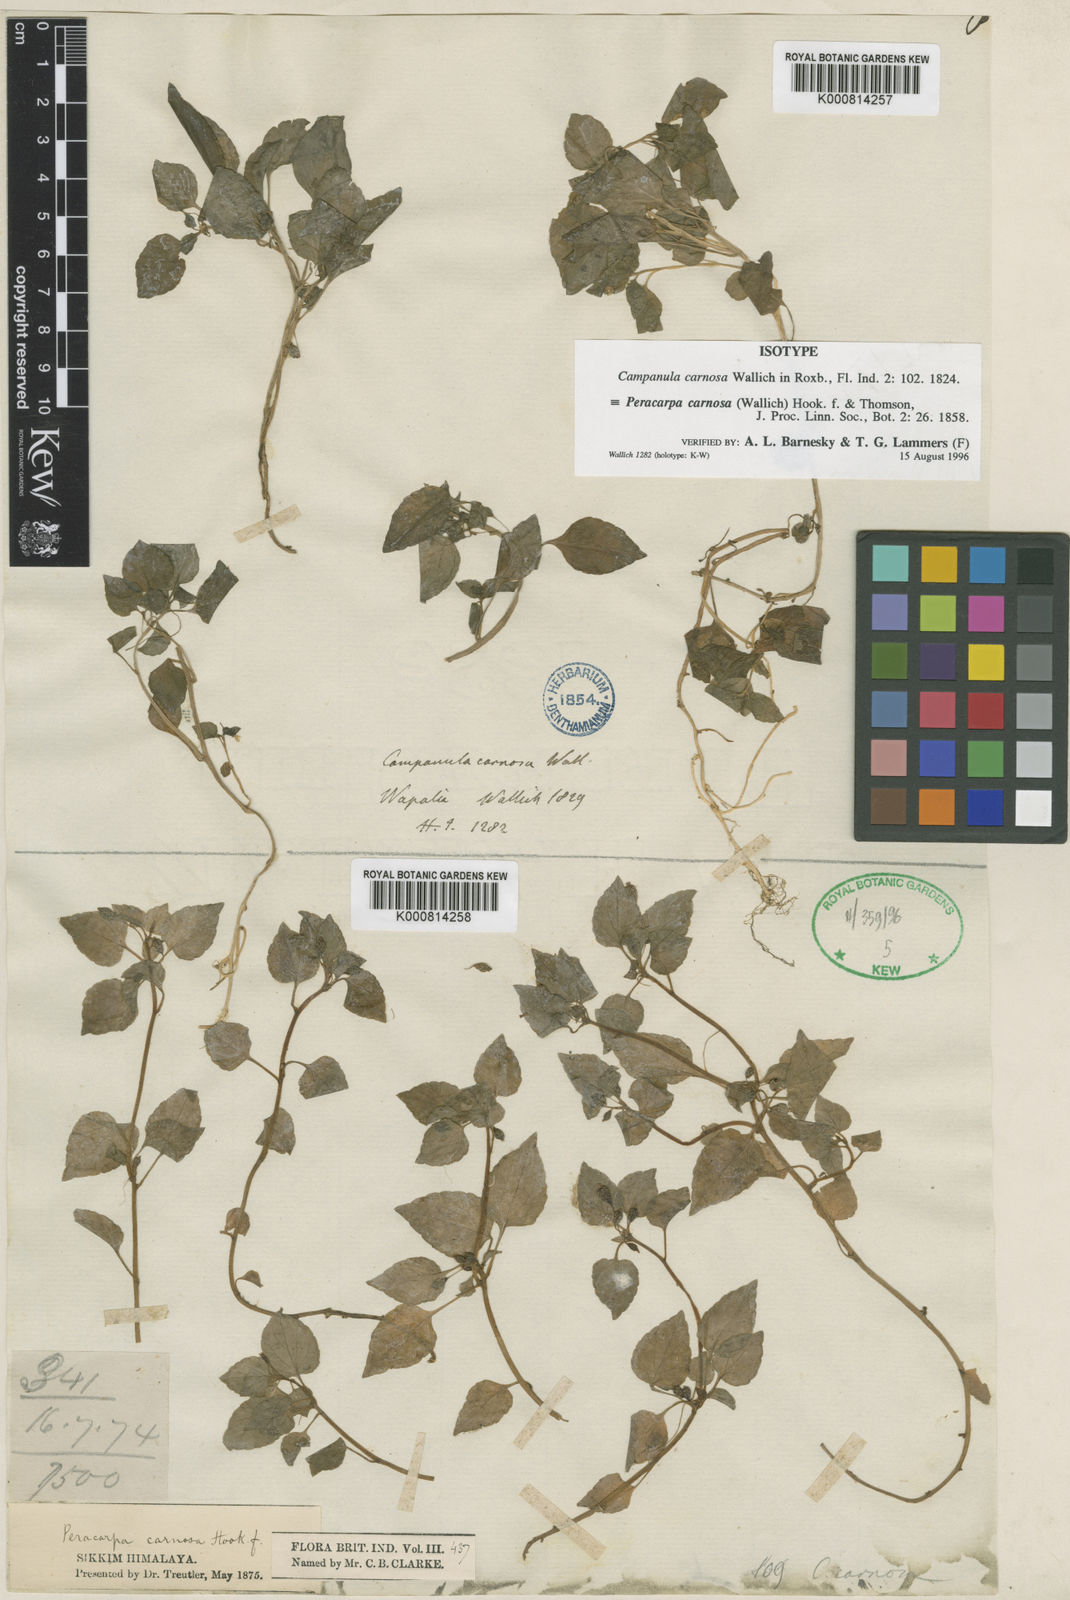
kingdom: Plantae
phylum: Tracheophyta
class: Magnoliopsida
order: Asterales
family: Campanulaceae
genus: Peracarpa
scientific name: Peracarpa carnosa
